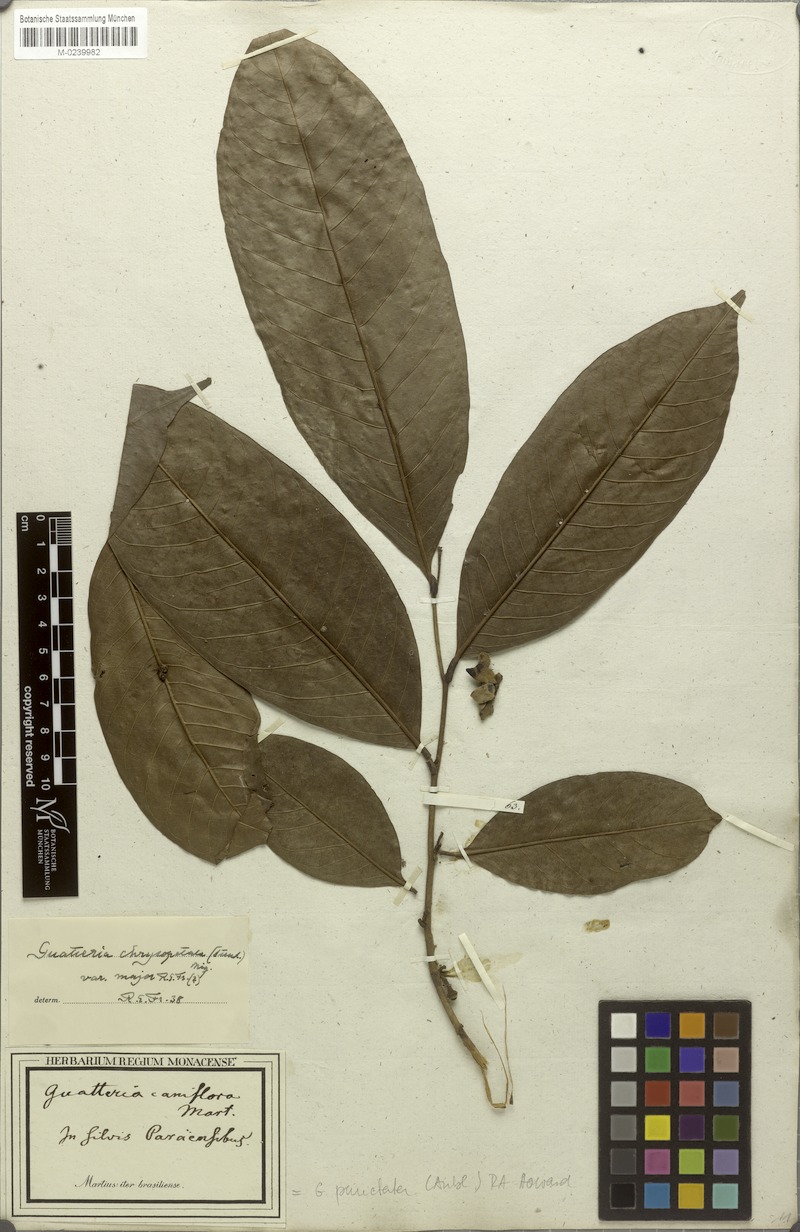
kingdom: Plantae
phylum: Tracheophyta
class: Magnoliopsida
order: Magnoliales
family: Annonaceae
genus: Guatteria
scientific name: Guatteria punctata
